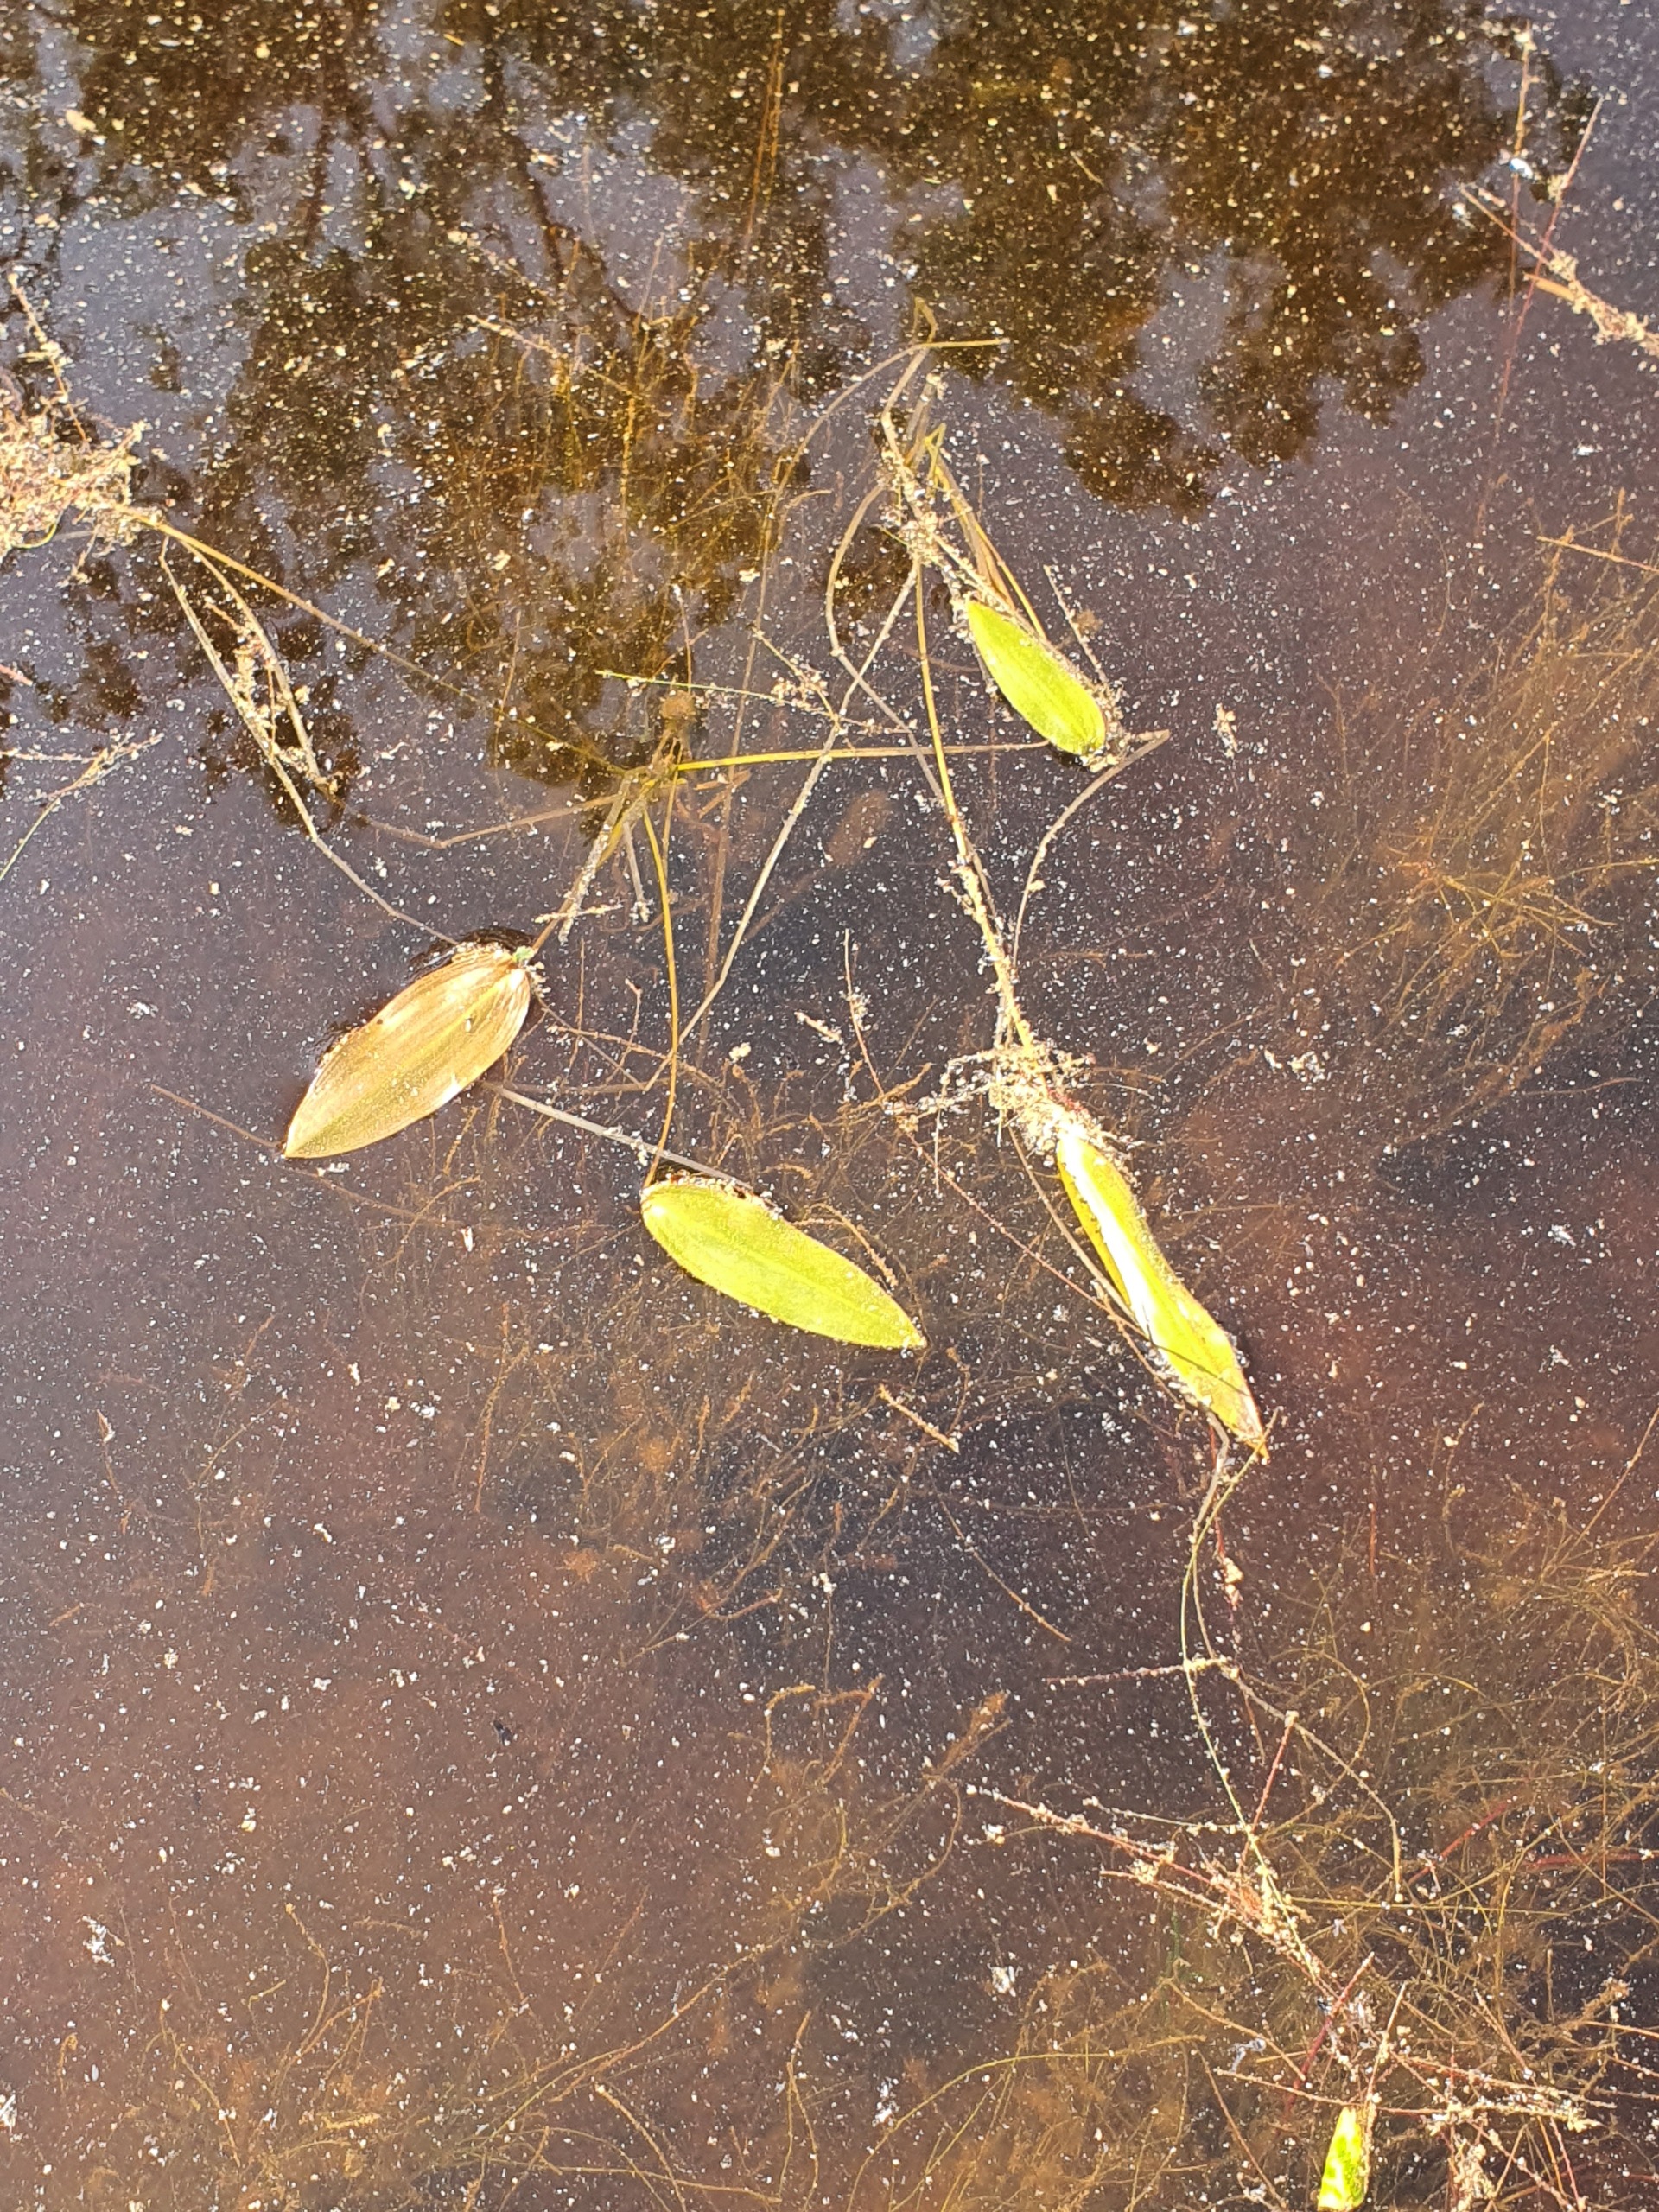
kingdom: Plantae
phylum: Tracheophyta
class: Liliopsida
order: Alismatales
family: Potamogetonaceae
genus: Potamogeton
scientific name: Potamogeton natans
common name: Svømmende vandaks
